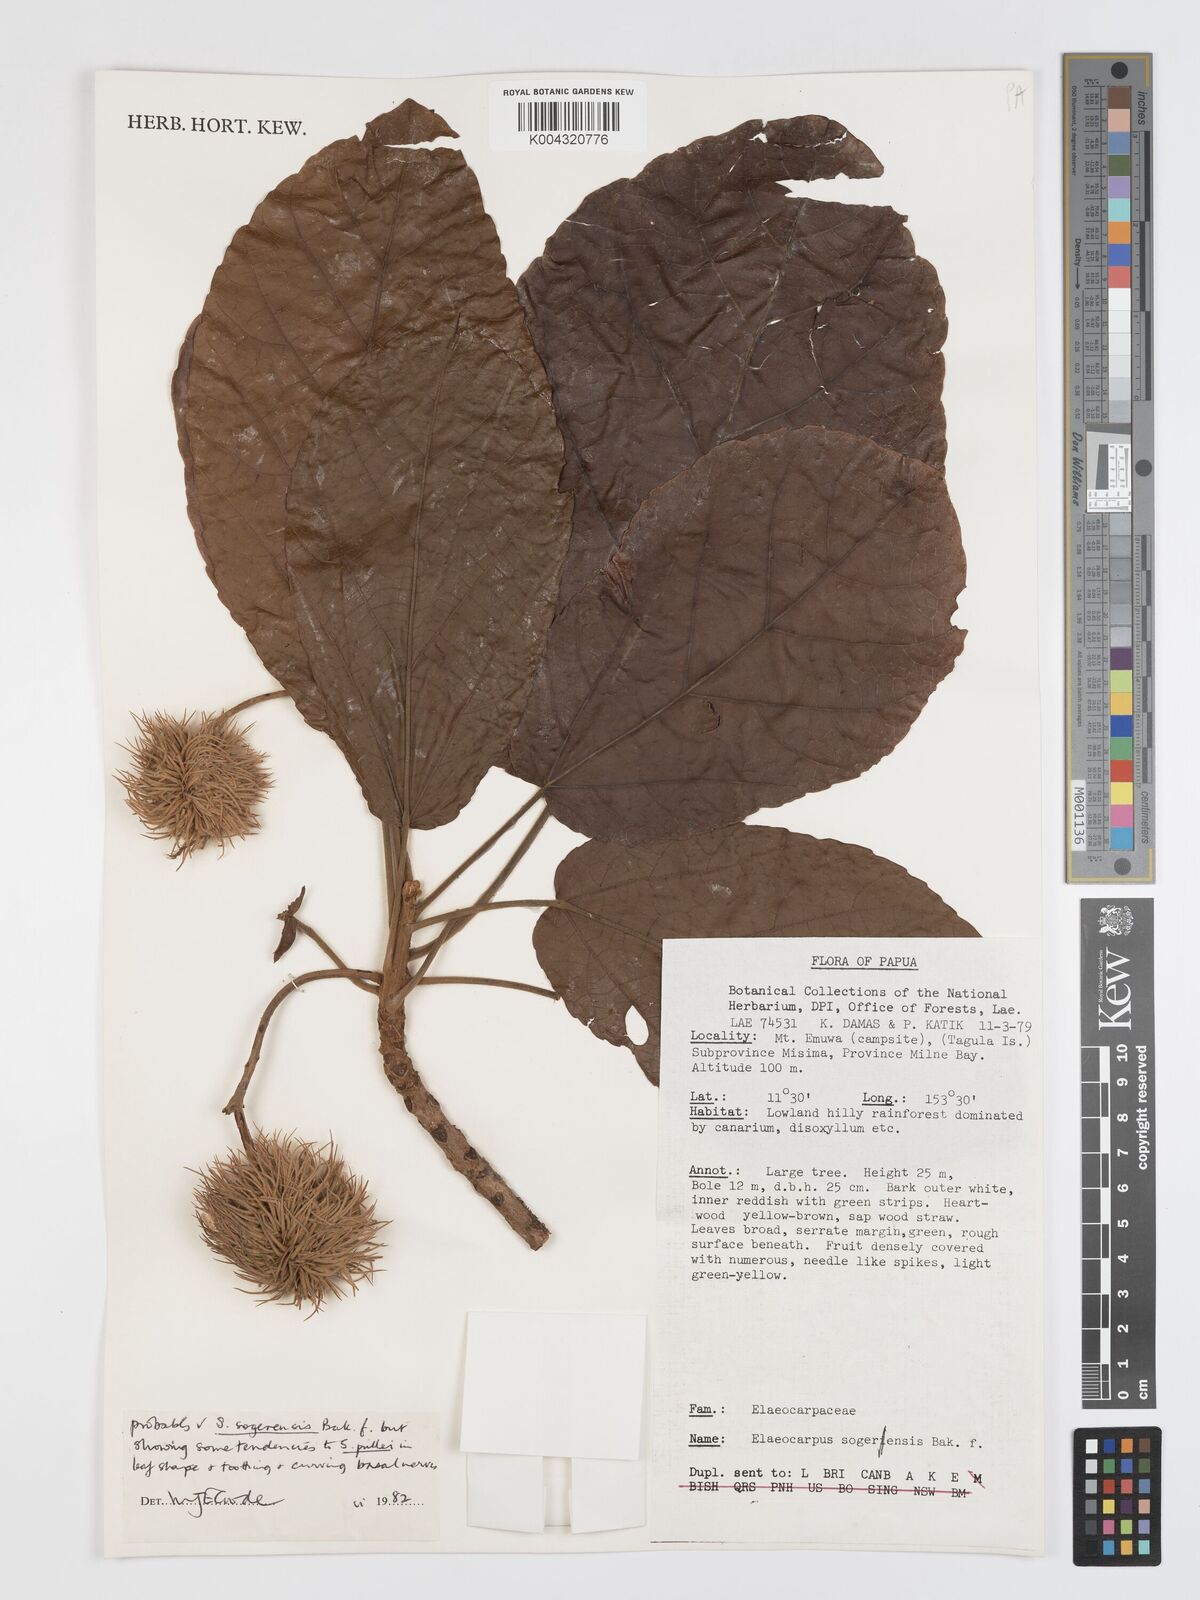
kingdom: Plantae
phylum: Tracheophyta
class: Magnoliopsida
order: Oxalidales
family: Elaeocarpaceae
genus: Sloanea
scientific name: Sloanea sogerensis
